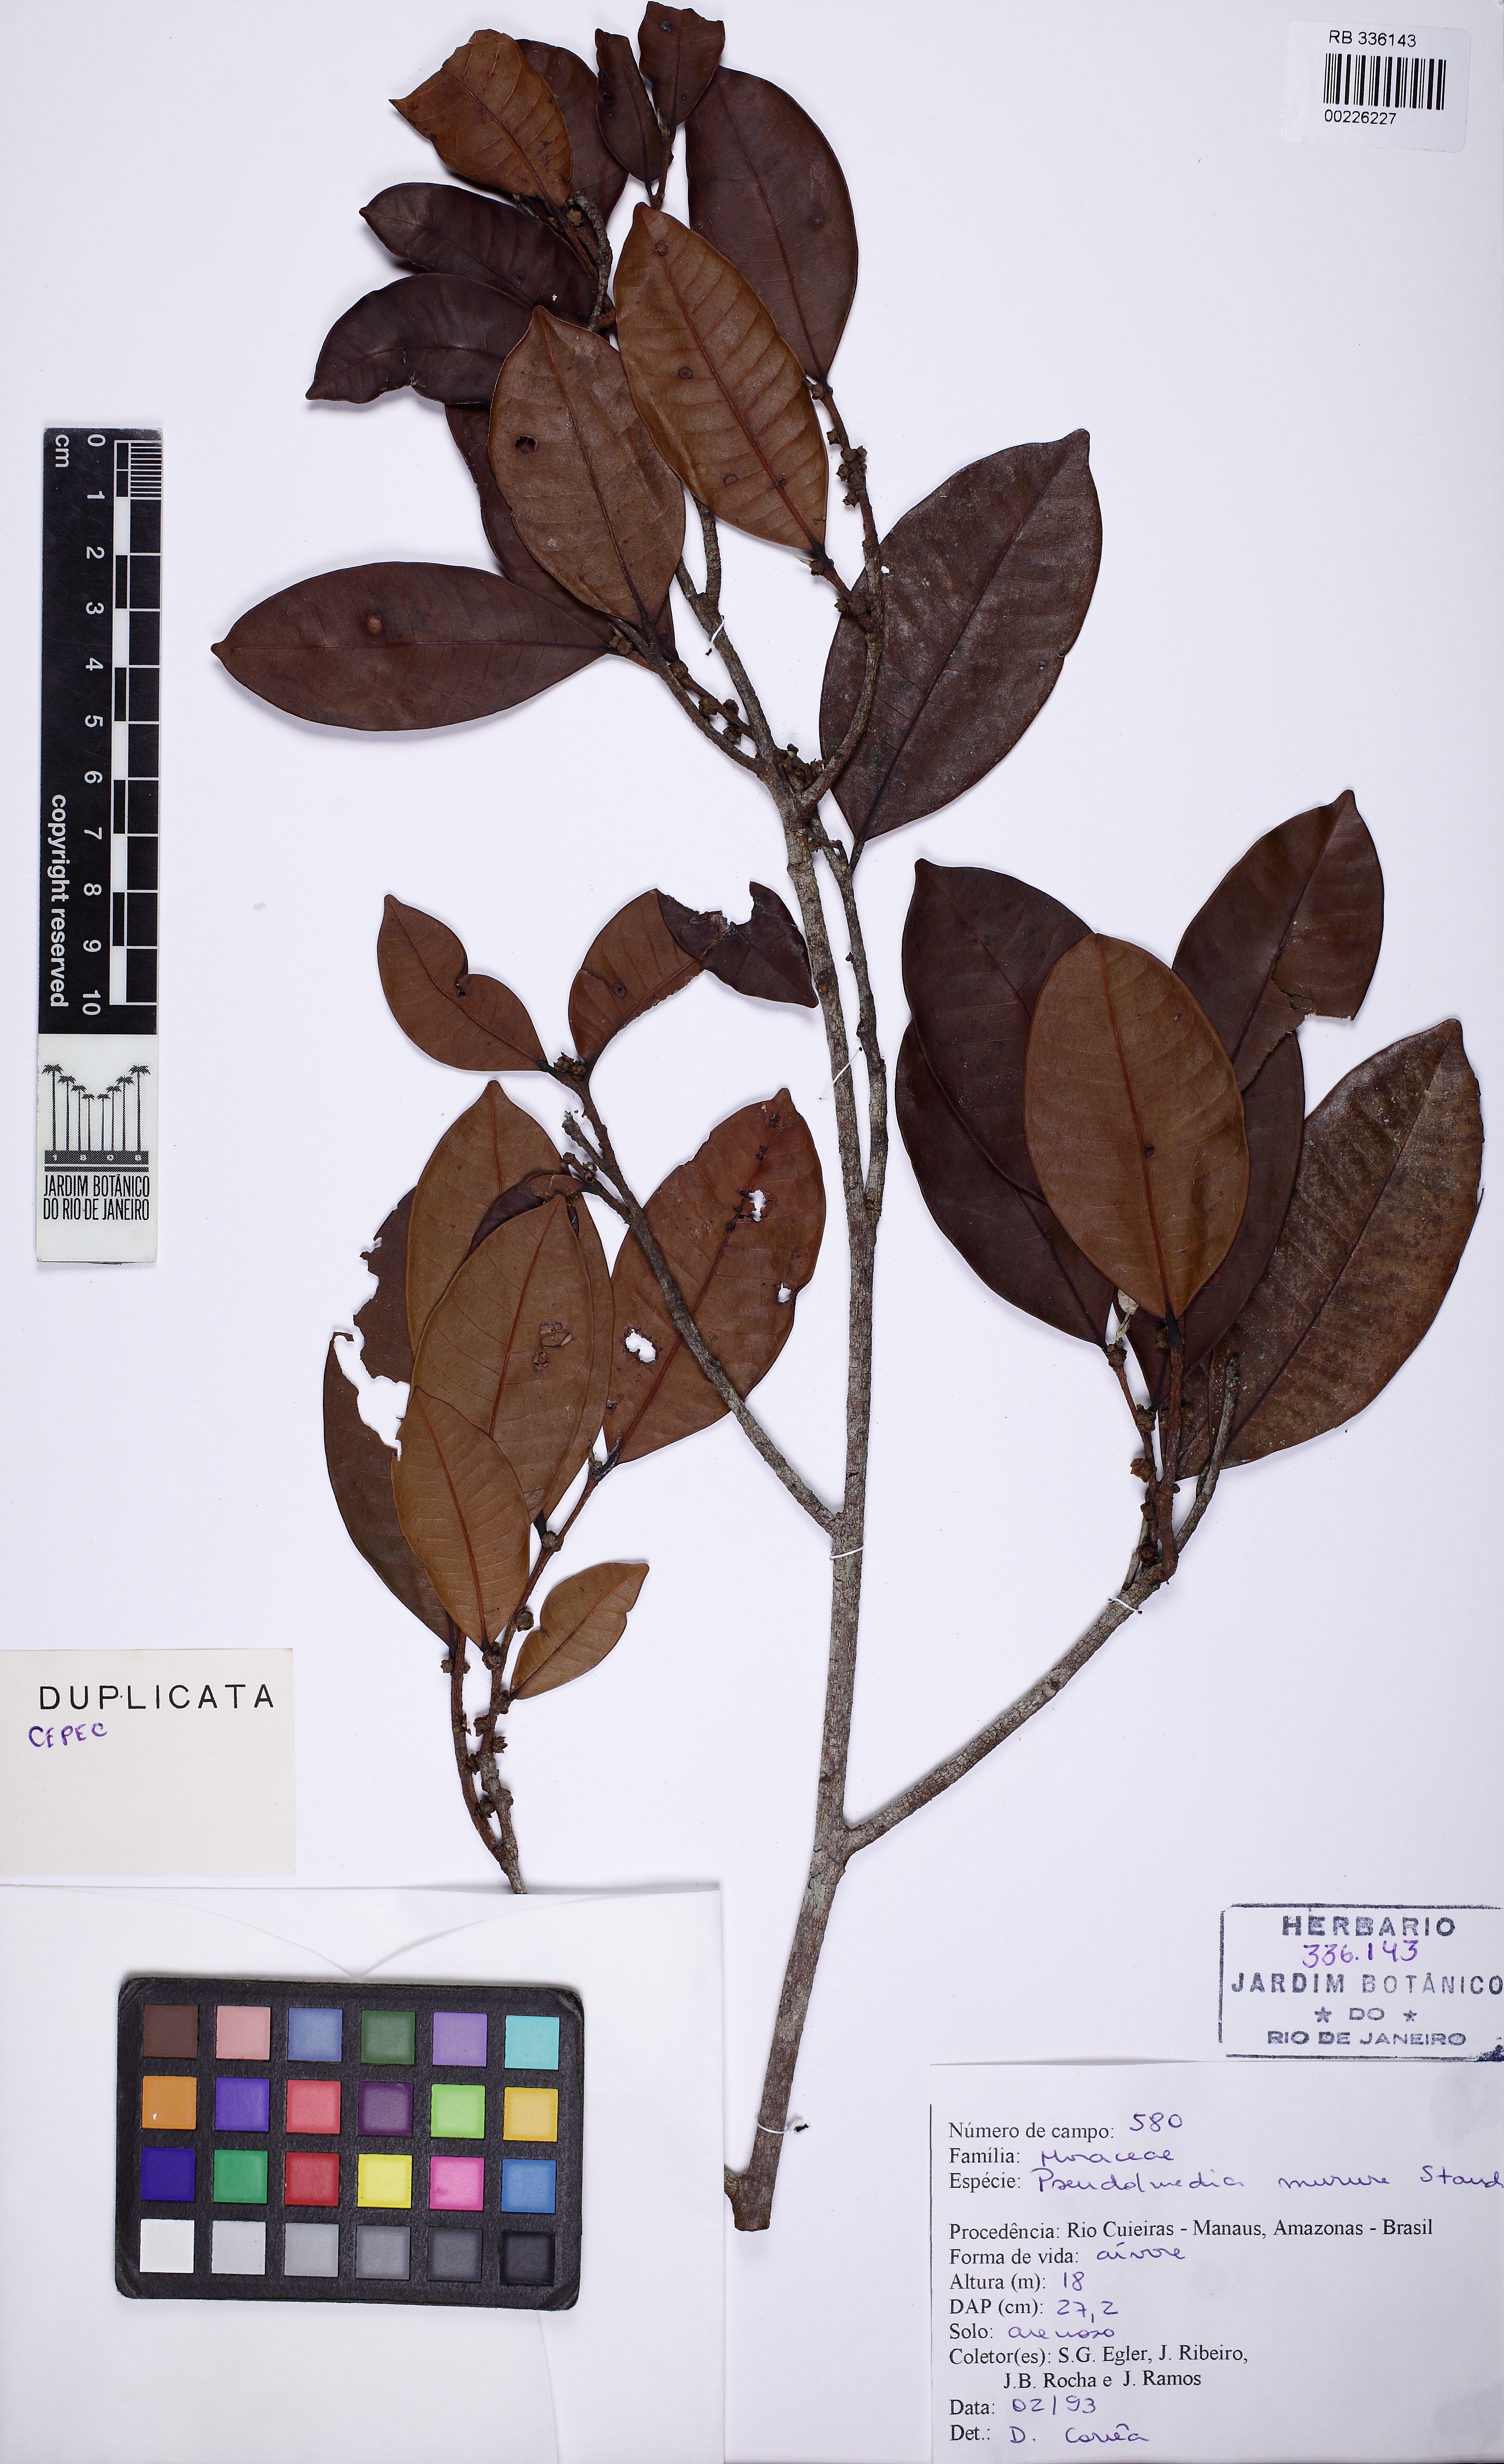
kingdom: Plantae
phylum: Tracheophyta
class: Magnoliopsida
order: Rosales
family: Moraceae
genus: Pseudolmedia
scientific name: Pseudolmedia macrophylla
